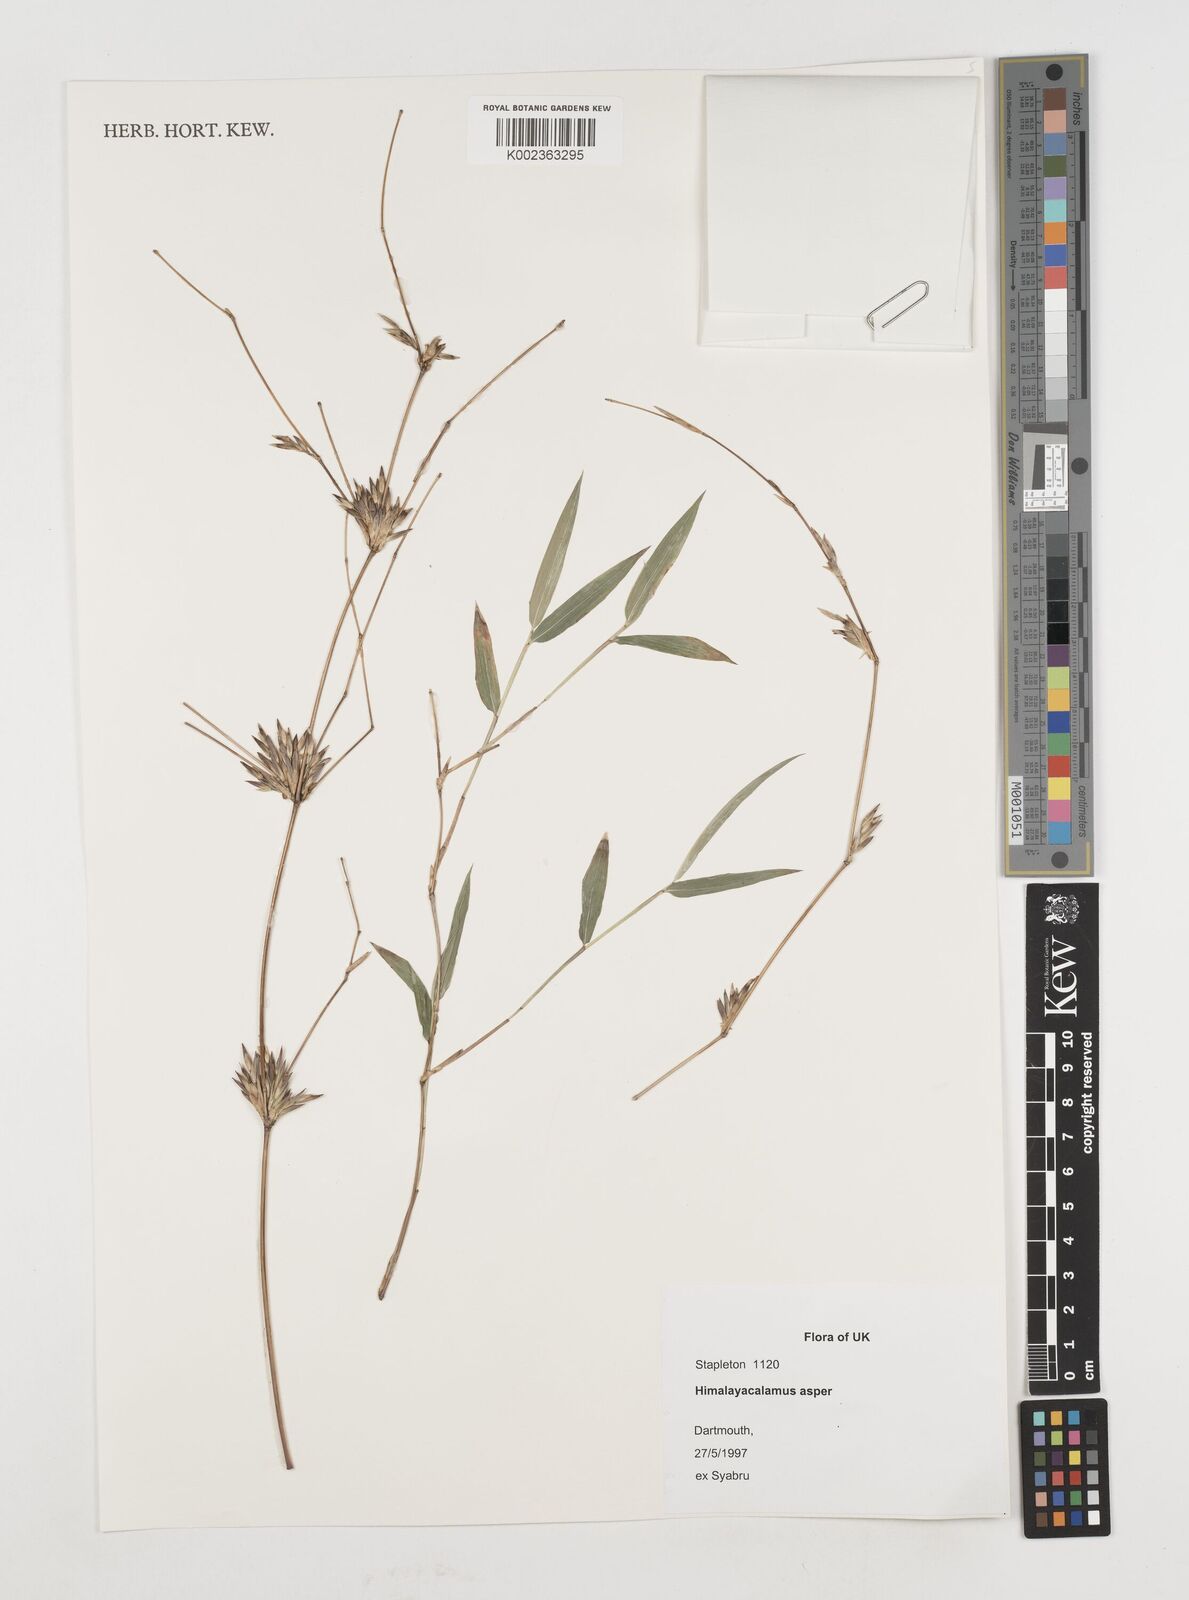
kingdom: Plantae
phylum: Tracheophyta
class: Liliopsida
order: Poales
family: Poaceae
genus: Himalayacalamus
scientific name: Himalayacalamus asper
